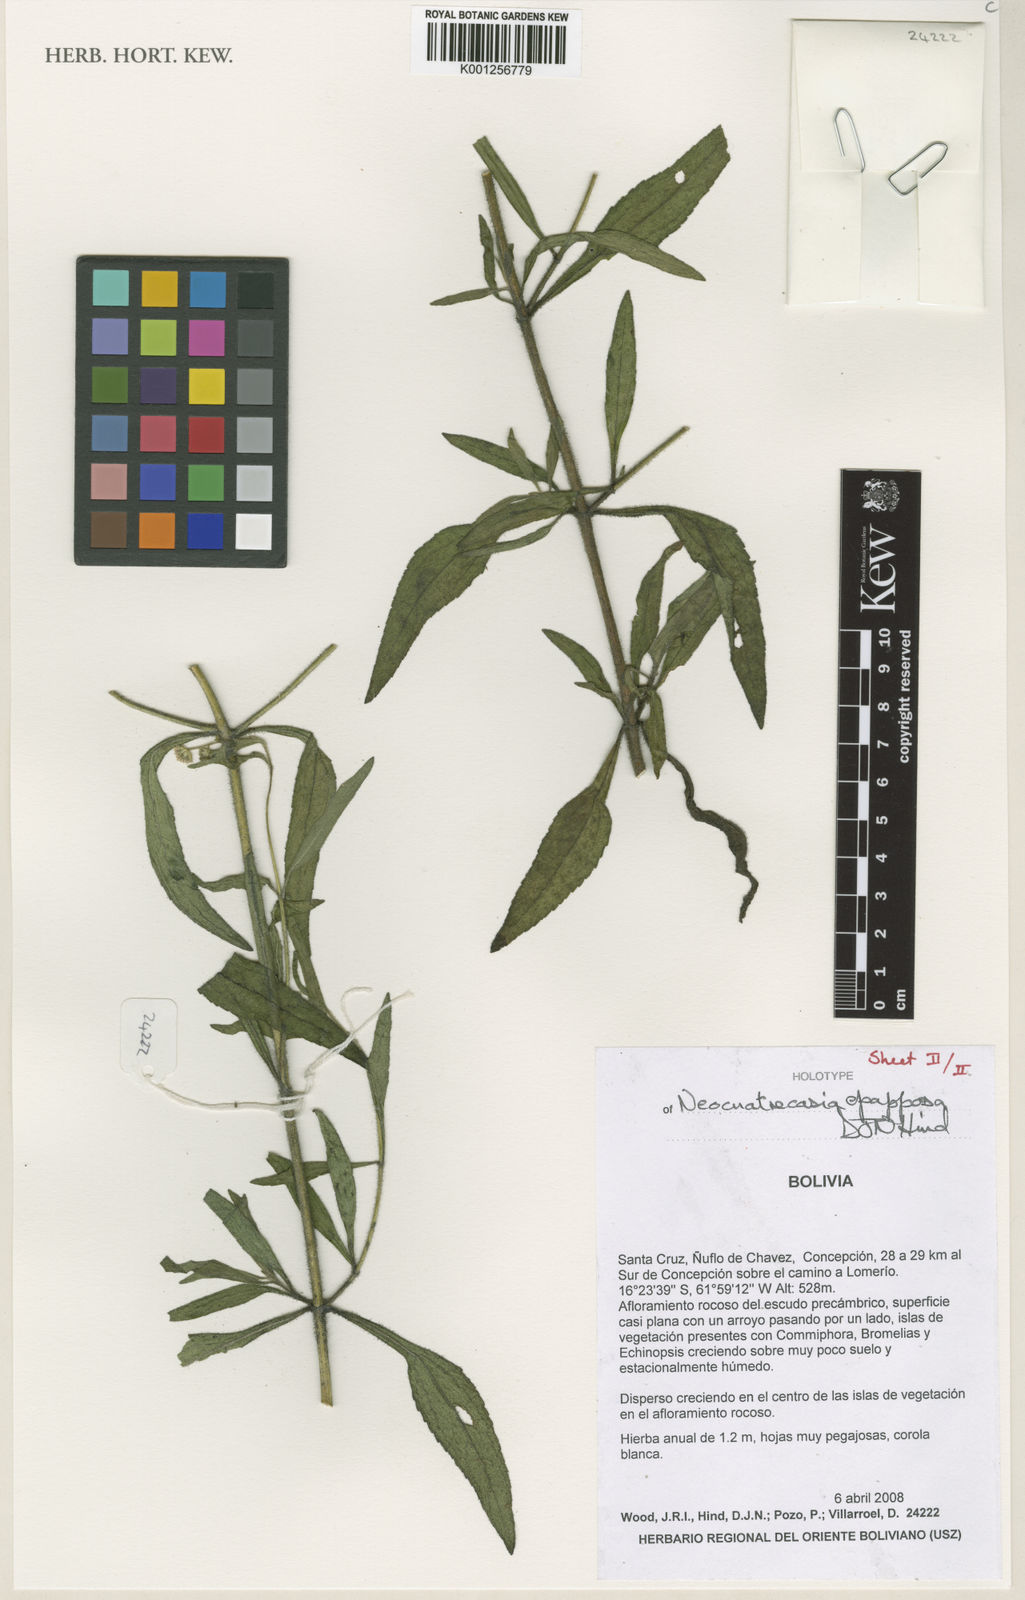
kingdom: Plantae
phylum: Tracheophyta
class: Magnoliopsida
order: Asterales
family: Asteraceae
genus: Neocuatrecasia
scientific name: Neocuatrecasia epapposa
